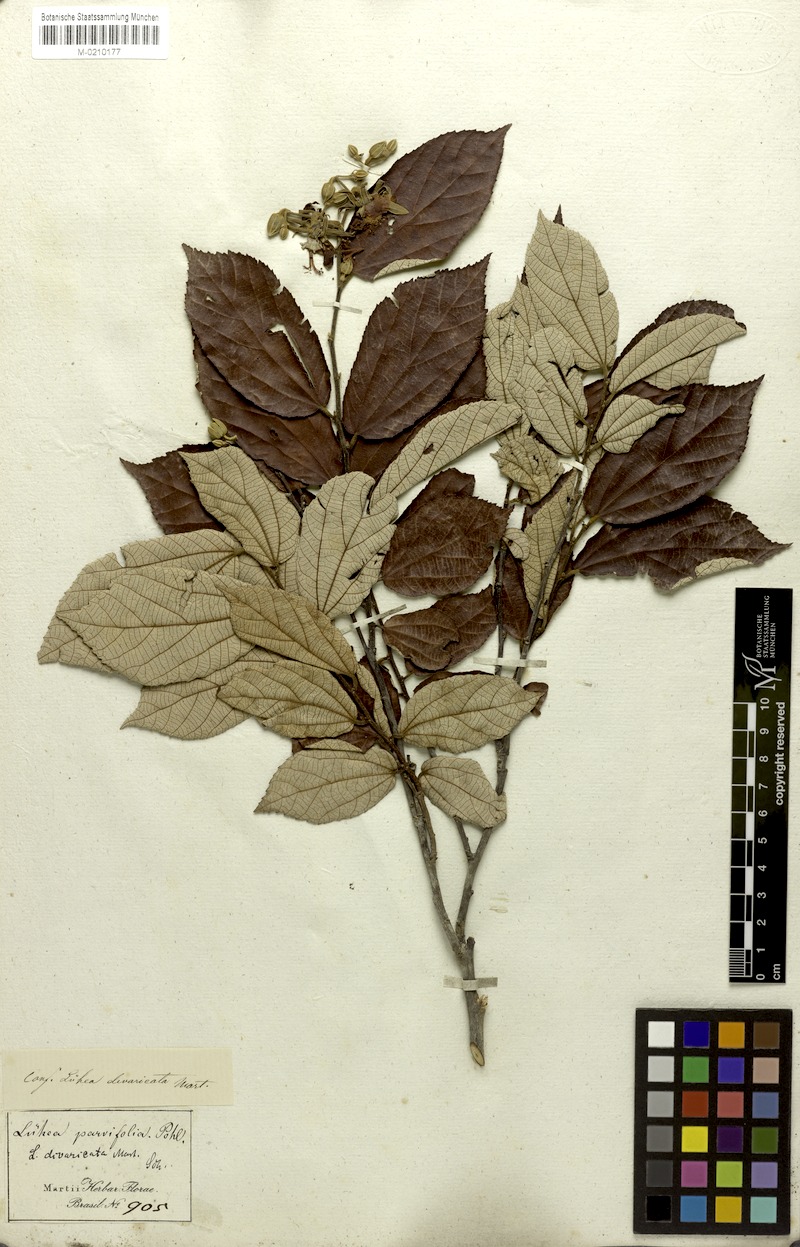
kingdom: Plantae
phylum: Tracheophyta
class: Magnoliopsida
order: Malvales
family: Malvaceae
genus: Luehea
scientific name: Luehea divaricata
